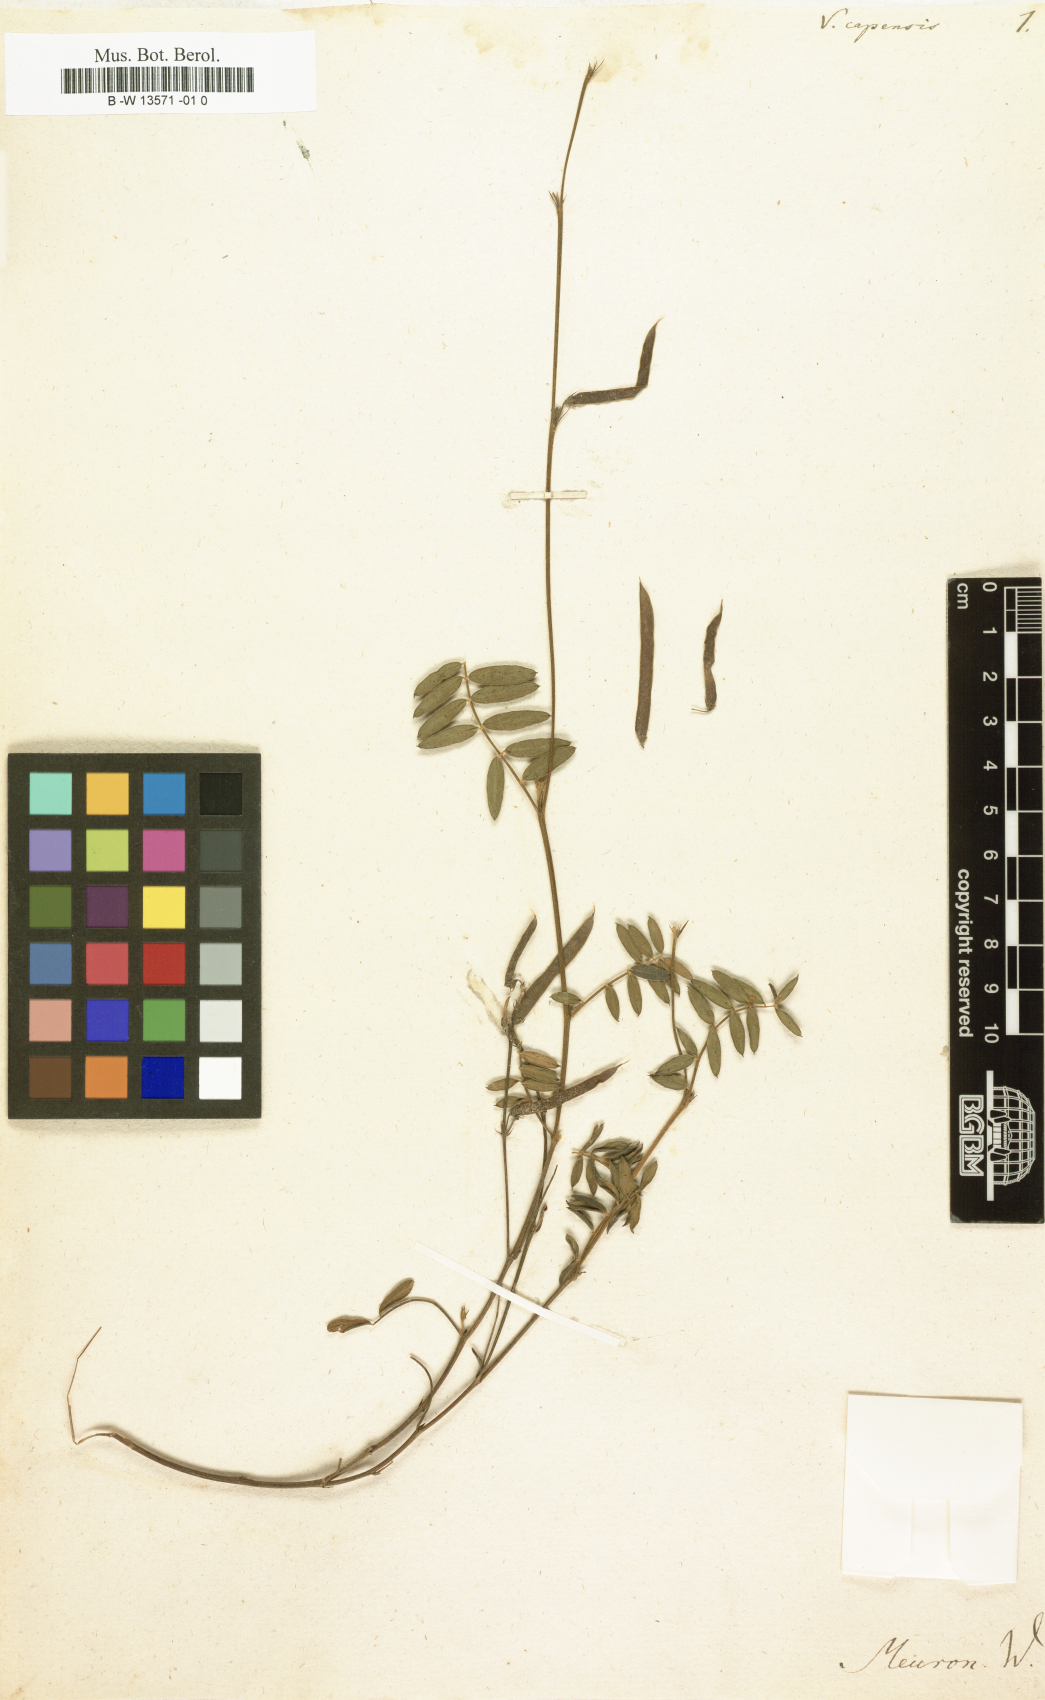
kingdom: Plantae
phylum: Tracheophyta
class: Magnoliopsida
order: Fabales
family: Fabaceae
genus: Lessertia
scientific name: Lessertia capensis
